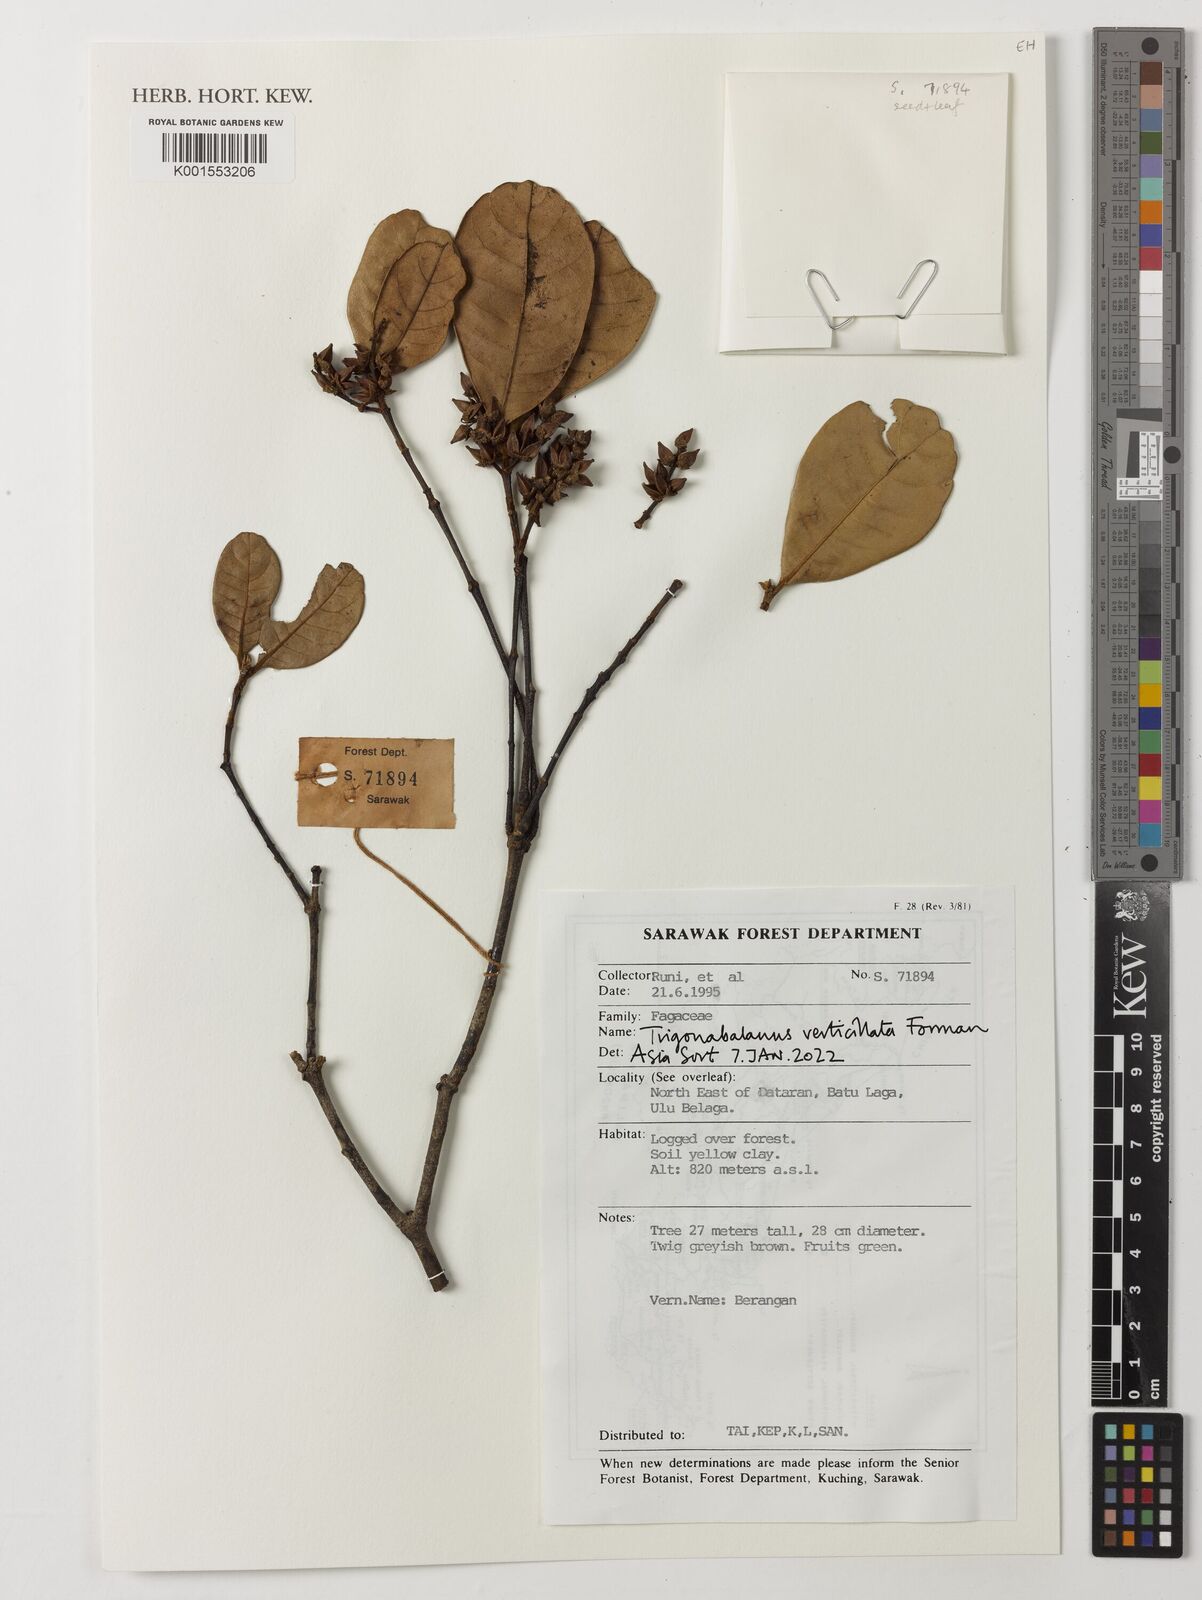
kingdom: Plantae
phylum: Tracheophyta
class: Magnoliopsida
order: Fagales
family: Fagaceae
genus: Trigonobalanus
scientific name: Trigonobalanus verticillata
